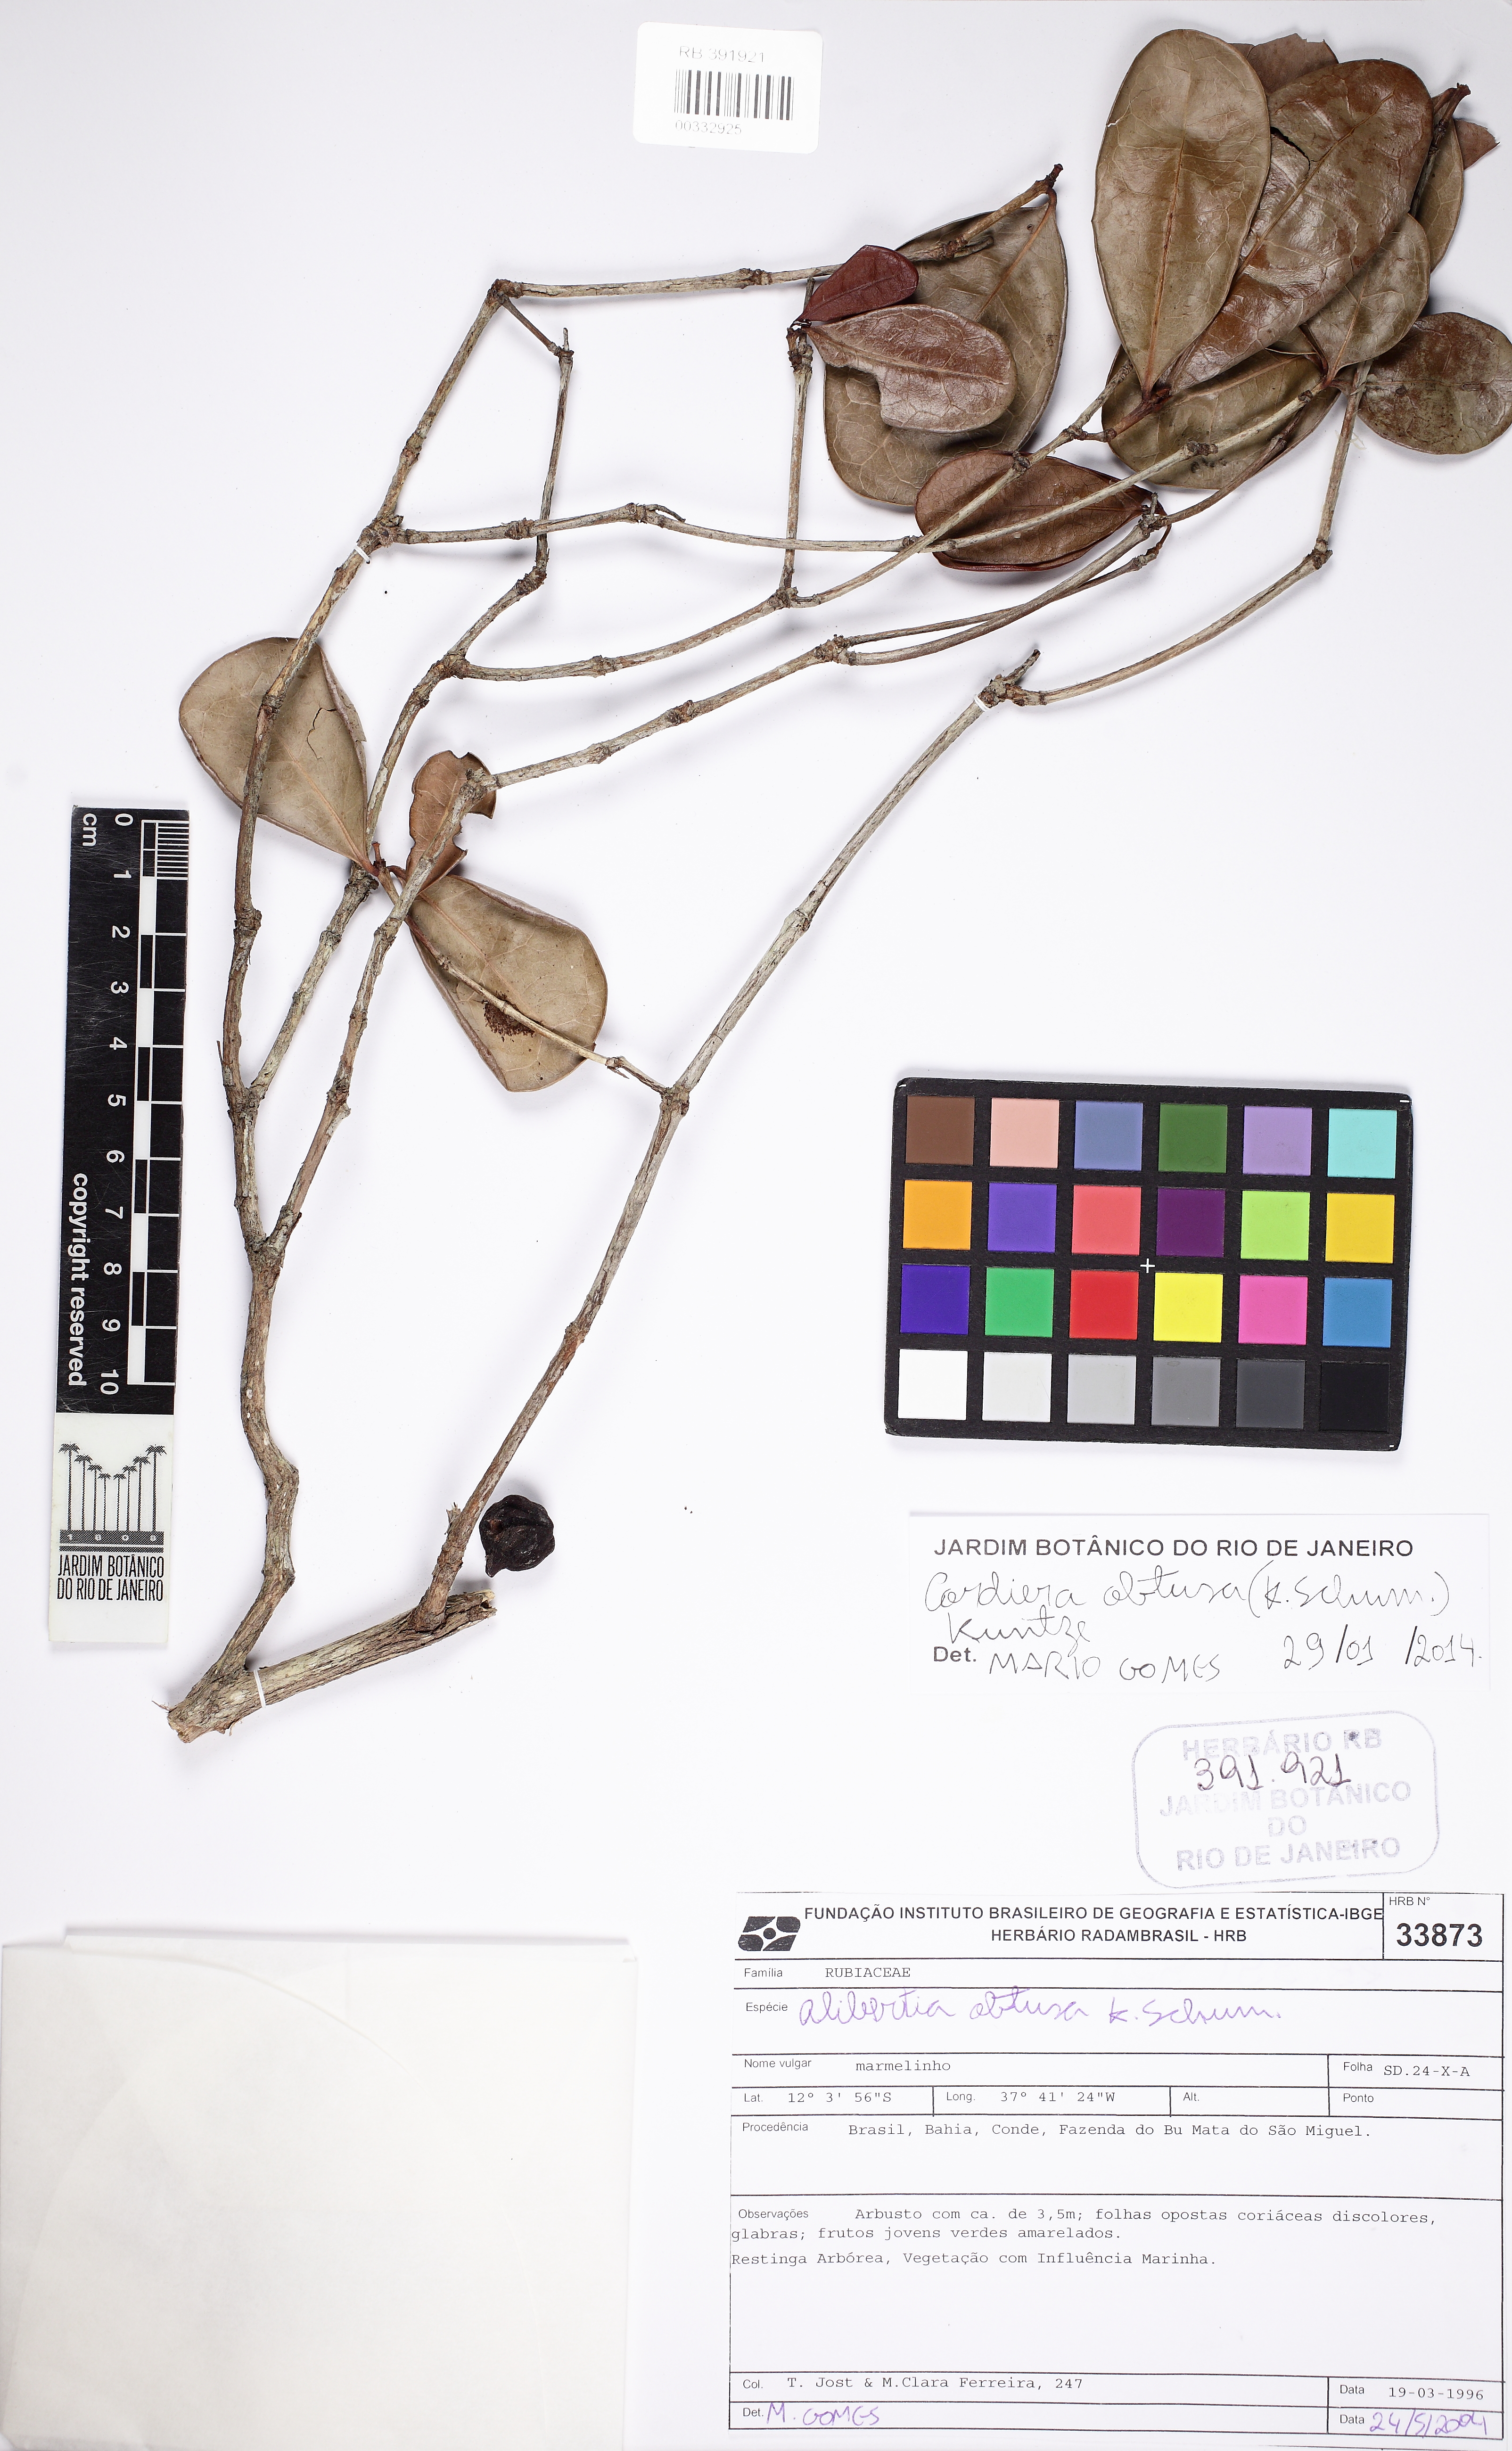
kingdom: Plantae
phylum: Tracheophyta
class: Magnoliopsida
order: Gentianales
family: Rubiaceae
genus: Cordiera
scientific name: Cordiera obtusa
